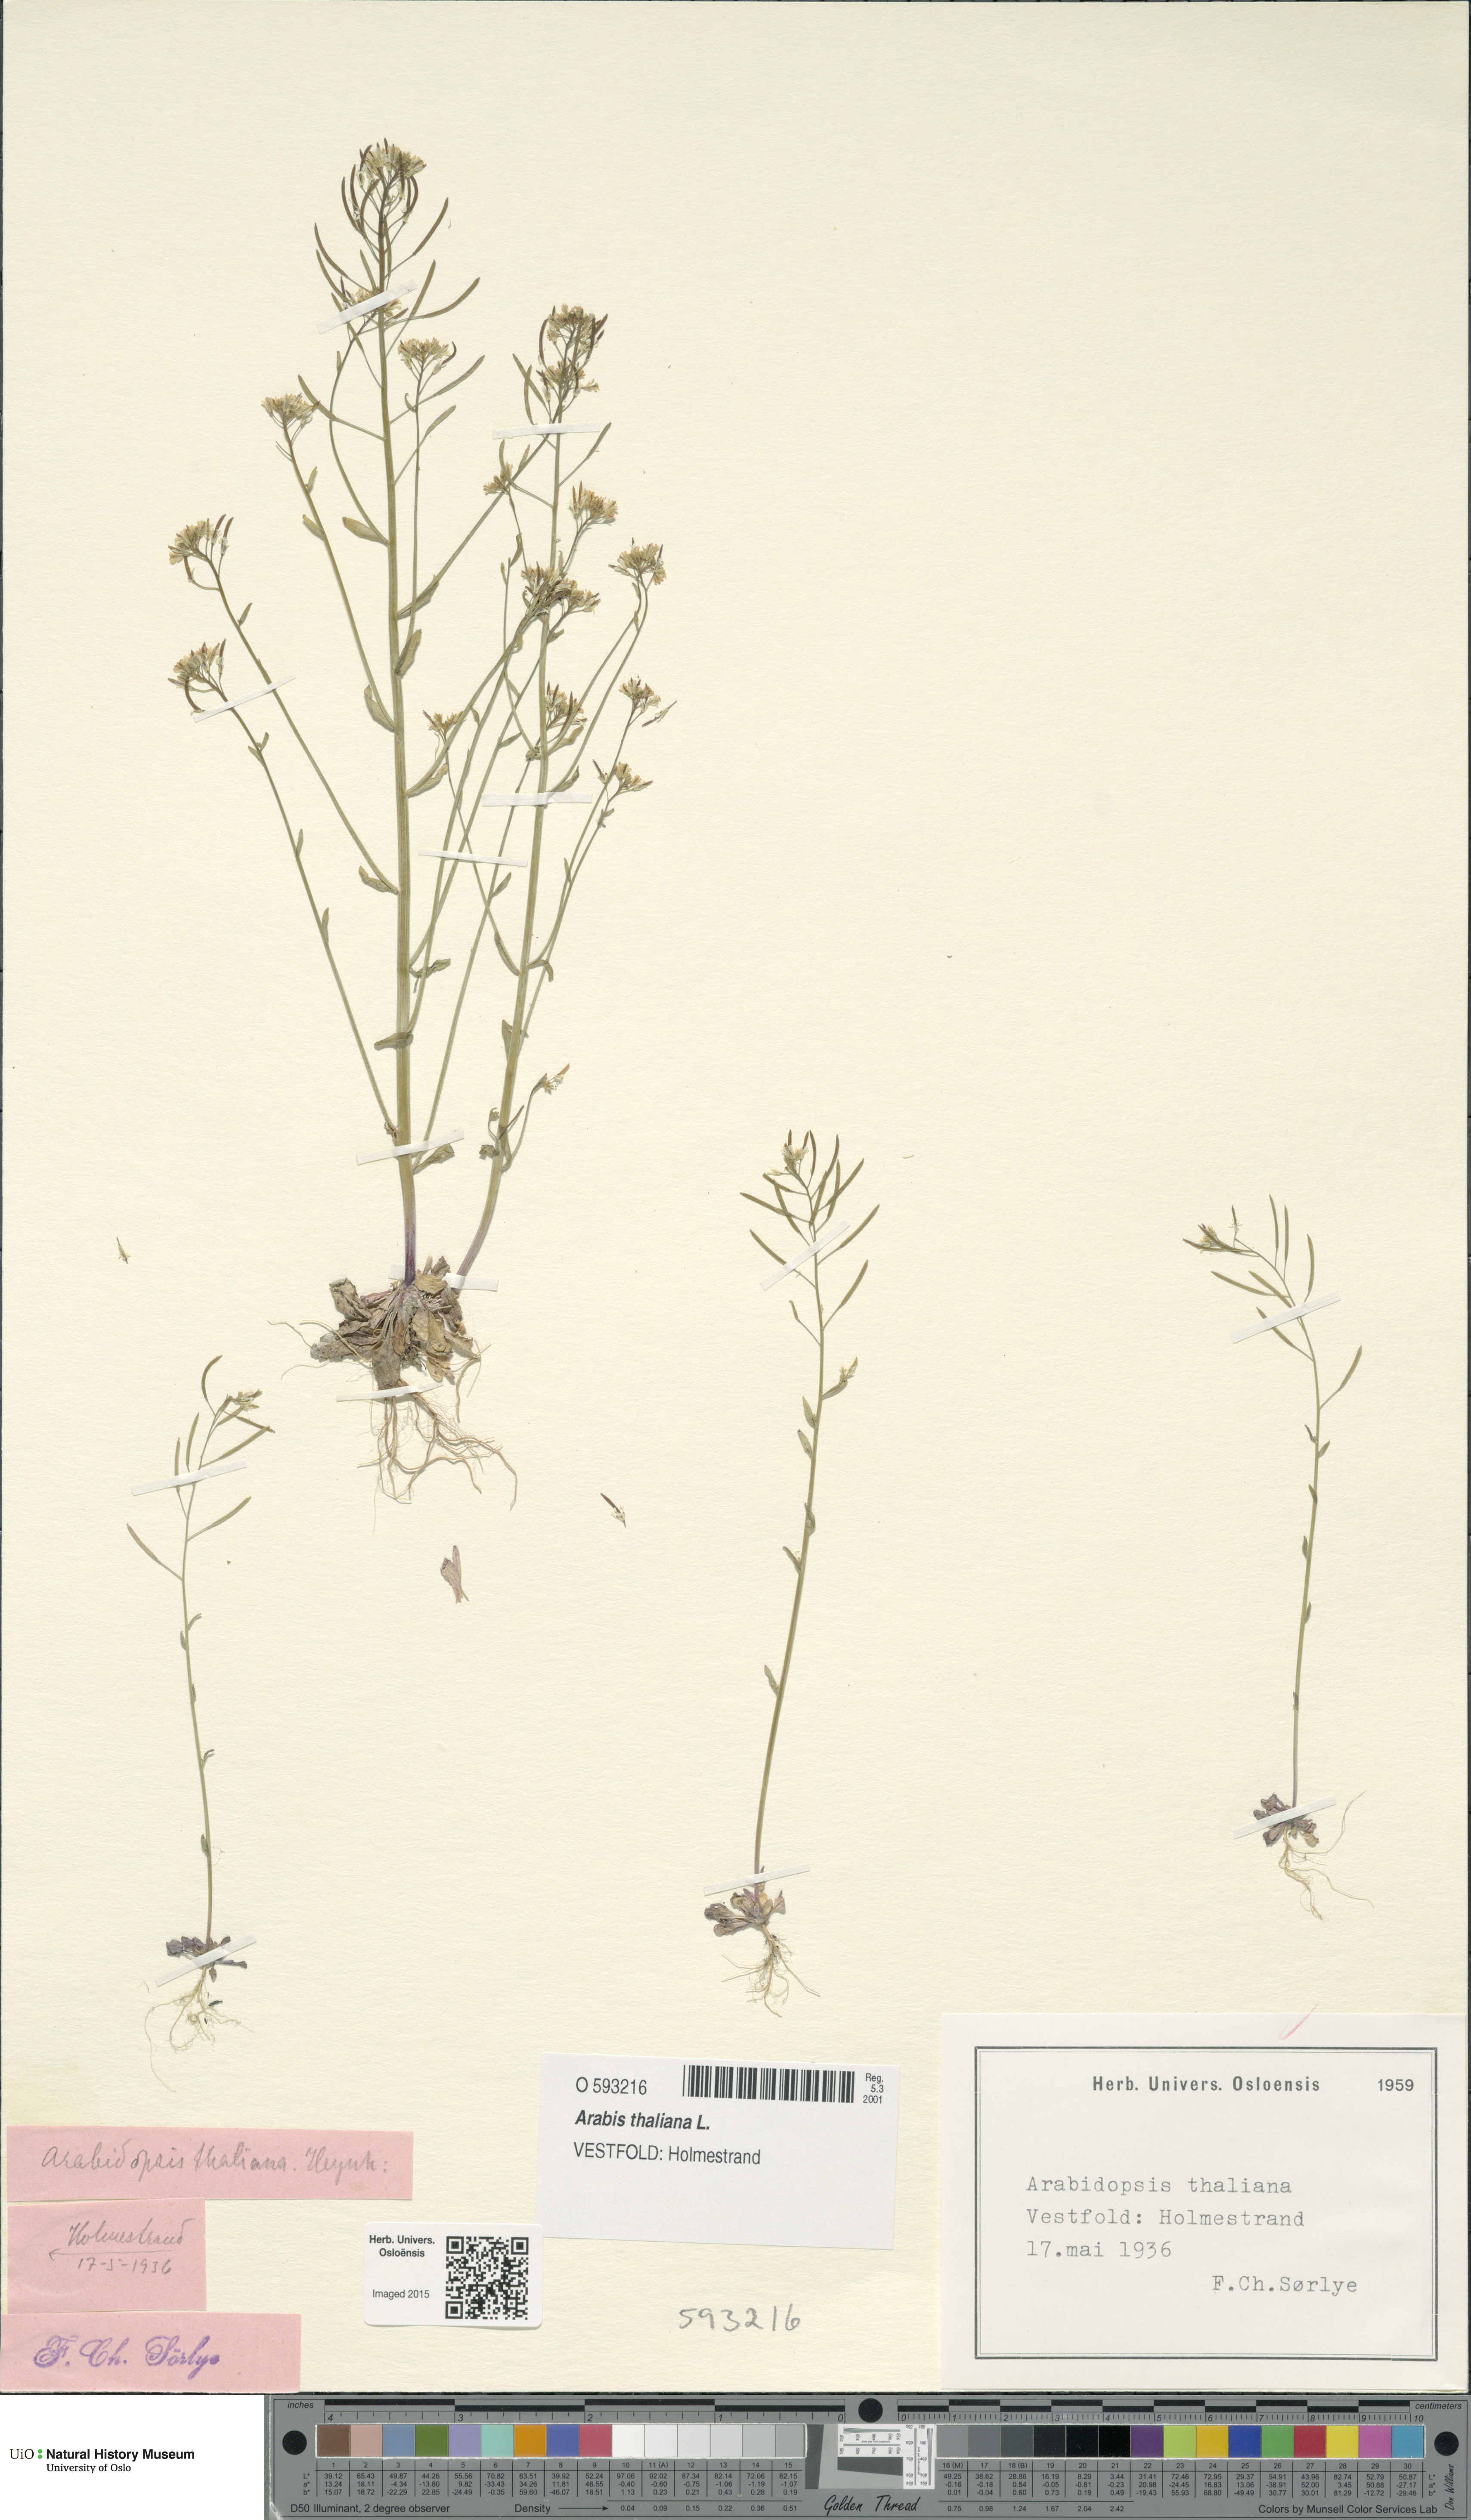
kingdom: Plantae
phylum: Tracheophyta
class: Magnoliopsida
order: Brassicales
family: Brassicaceae
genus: Arabidopsis
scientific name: Arabidopsis thaliana
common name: Thale cress
